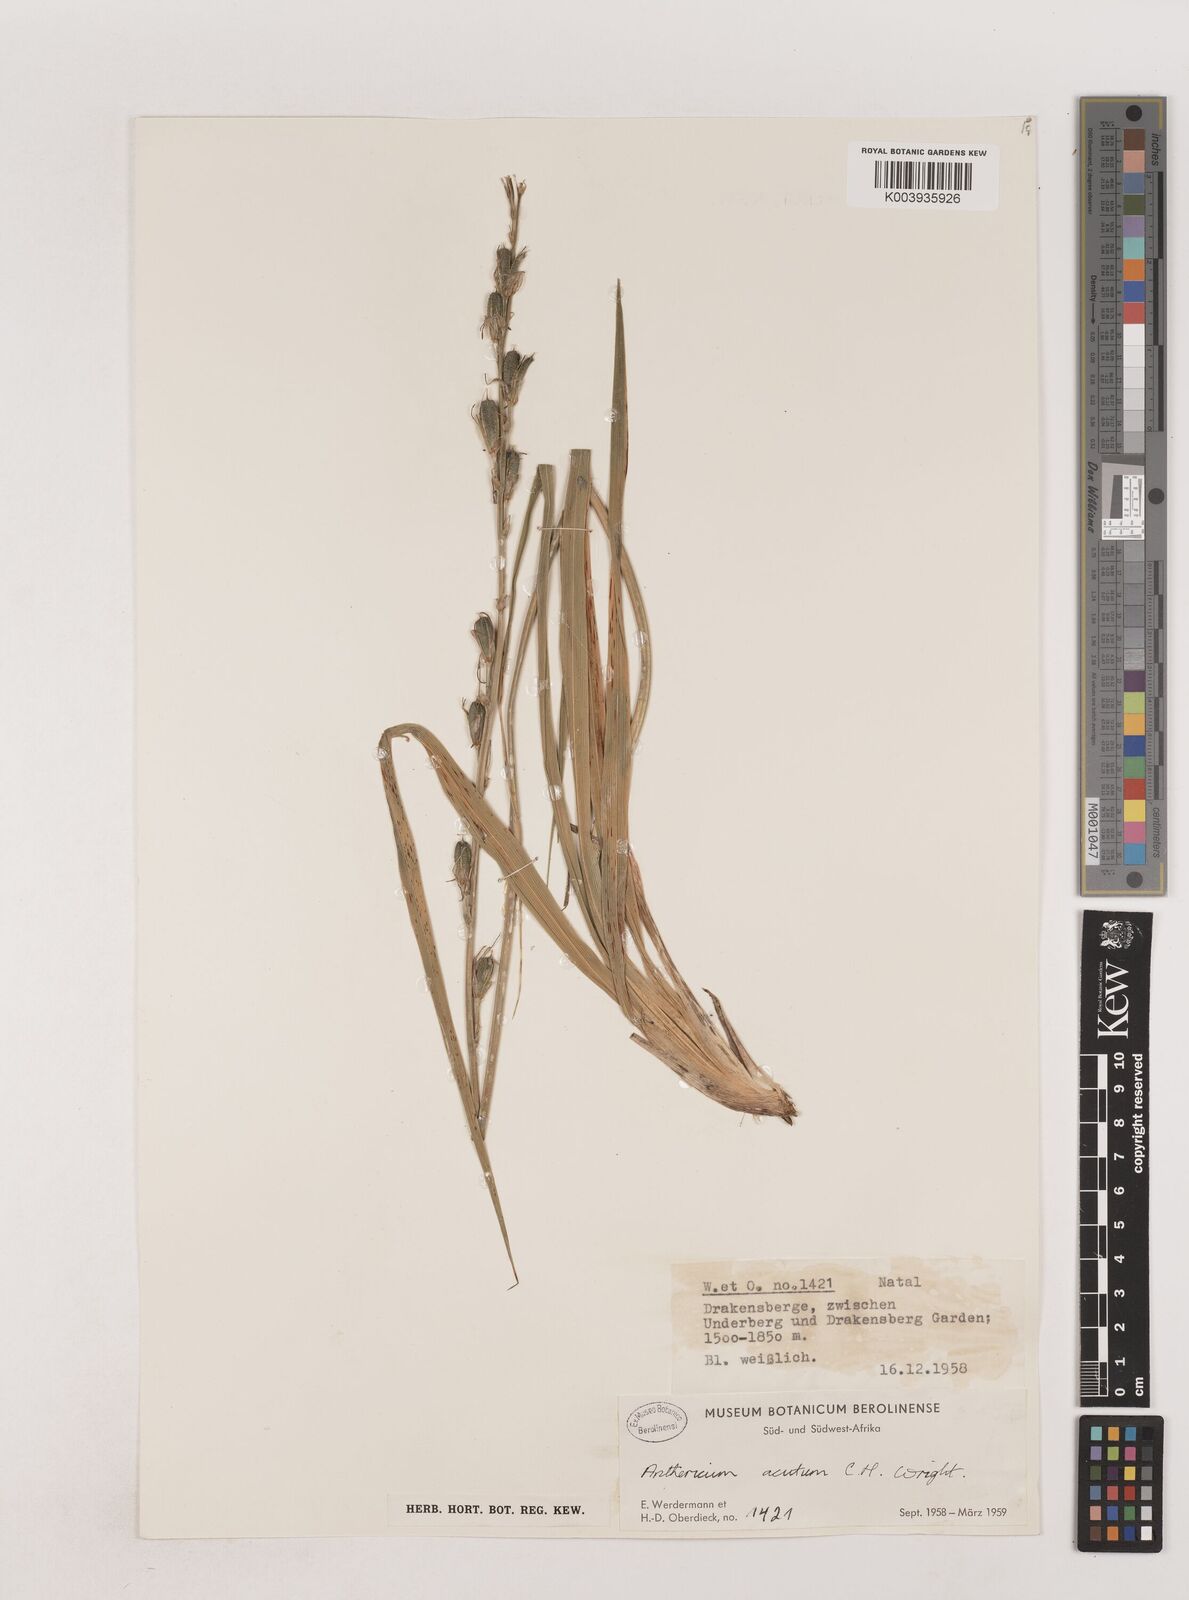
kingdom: Plantae
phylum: Tracheophyta
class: Liliopsida
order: Asparagales
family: Asparagaceae
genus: Chlorophytum
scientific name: Chlorophytum acutum
